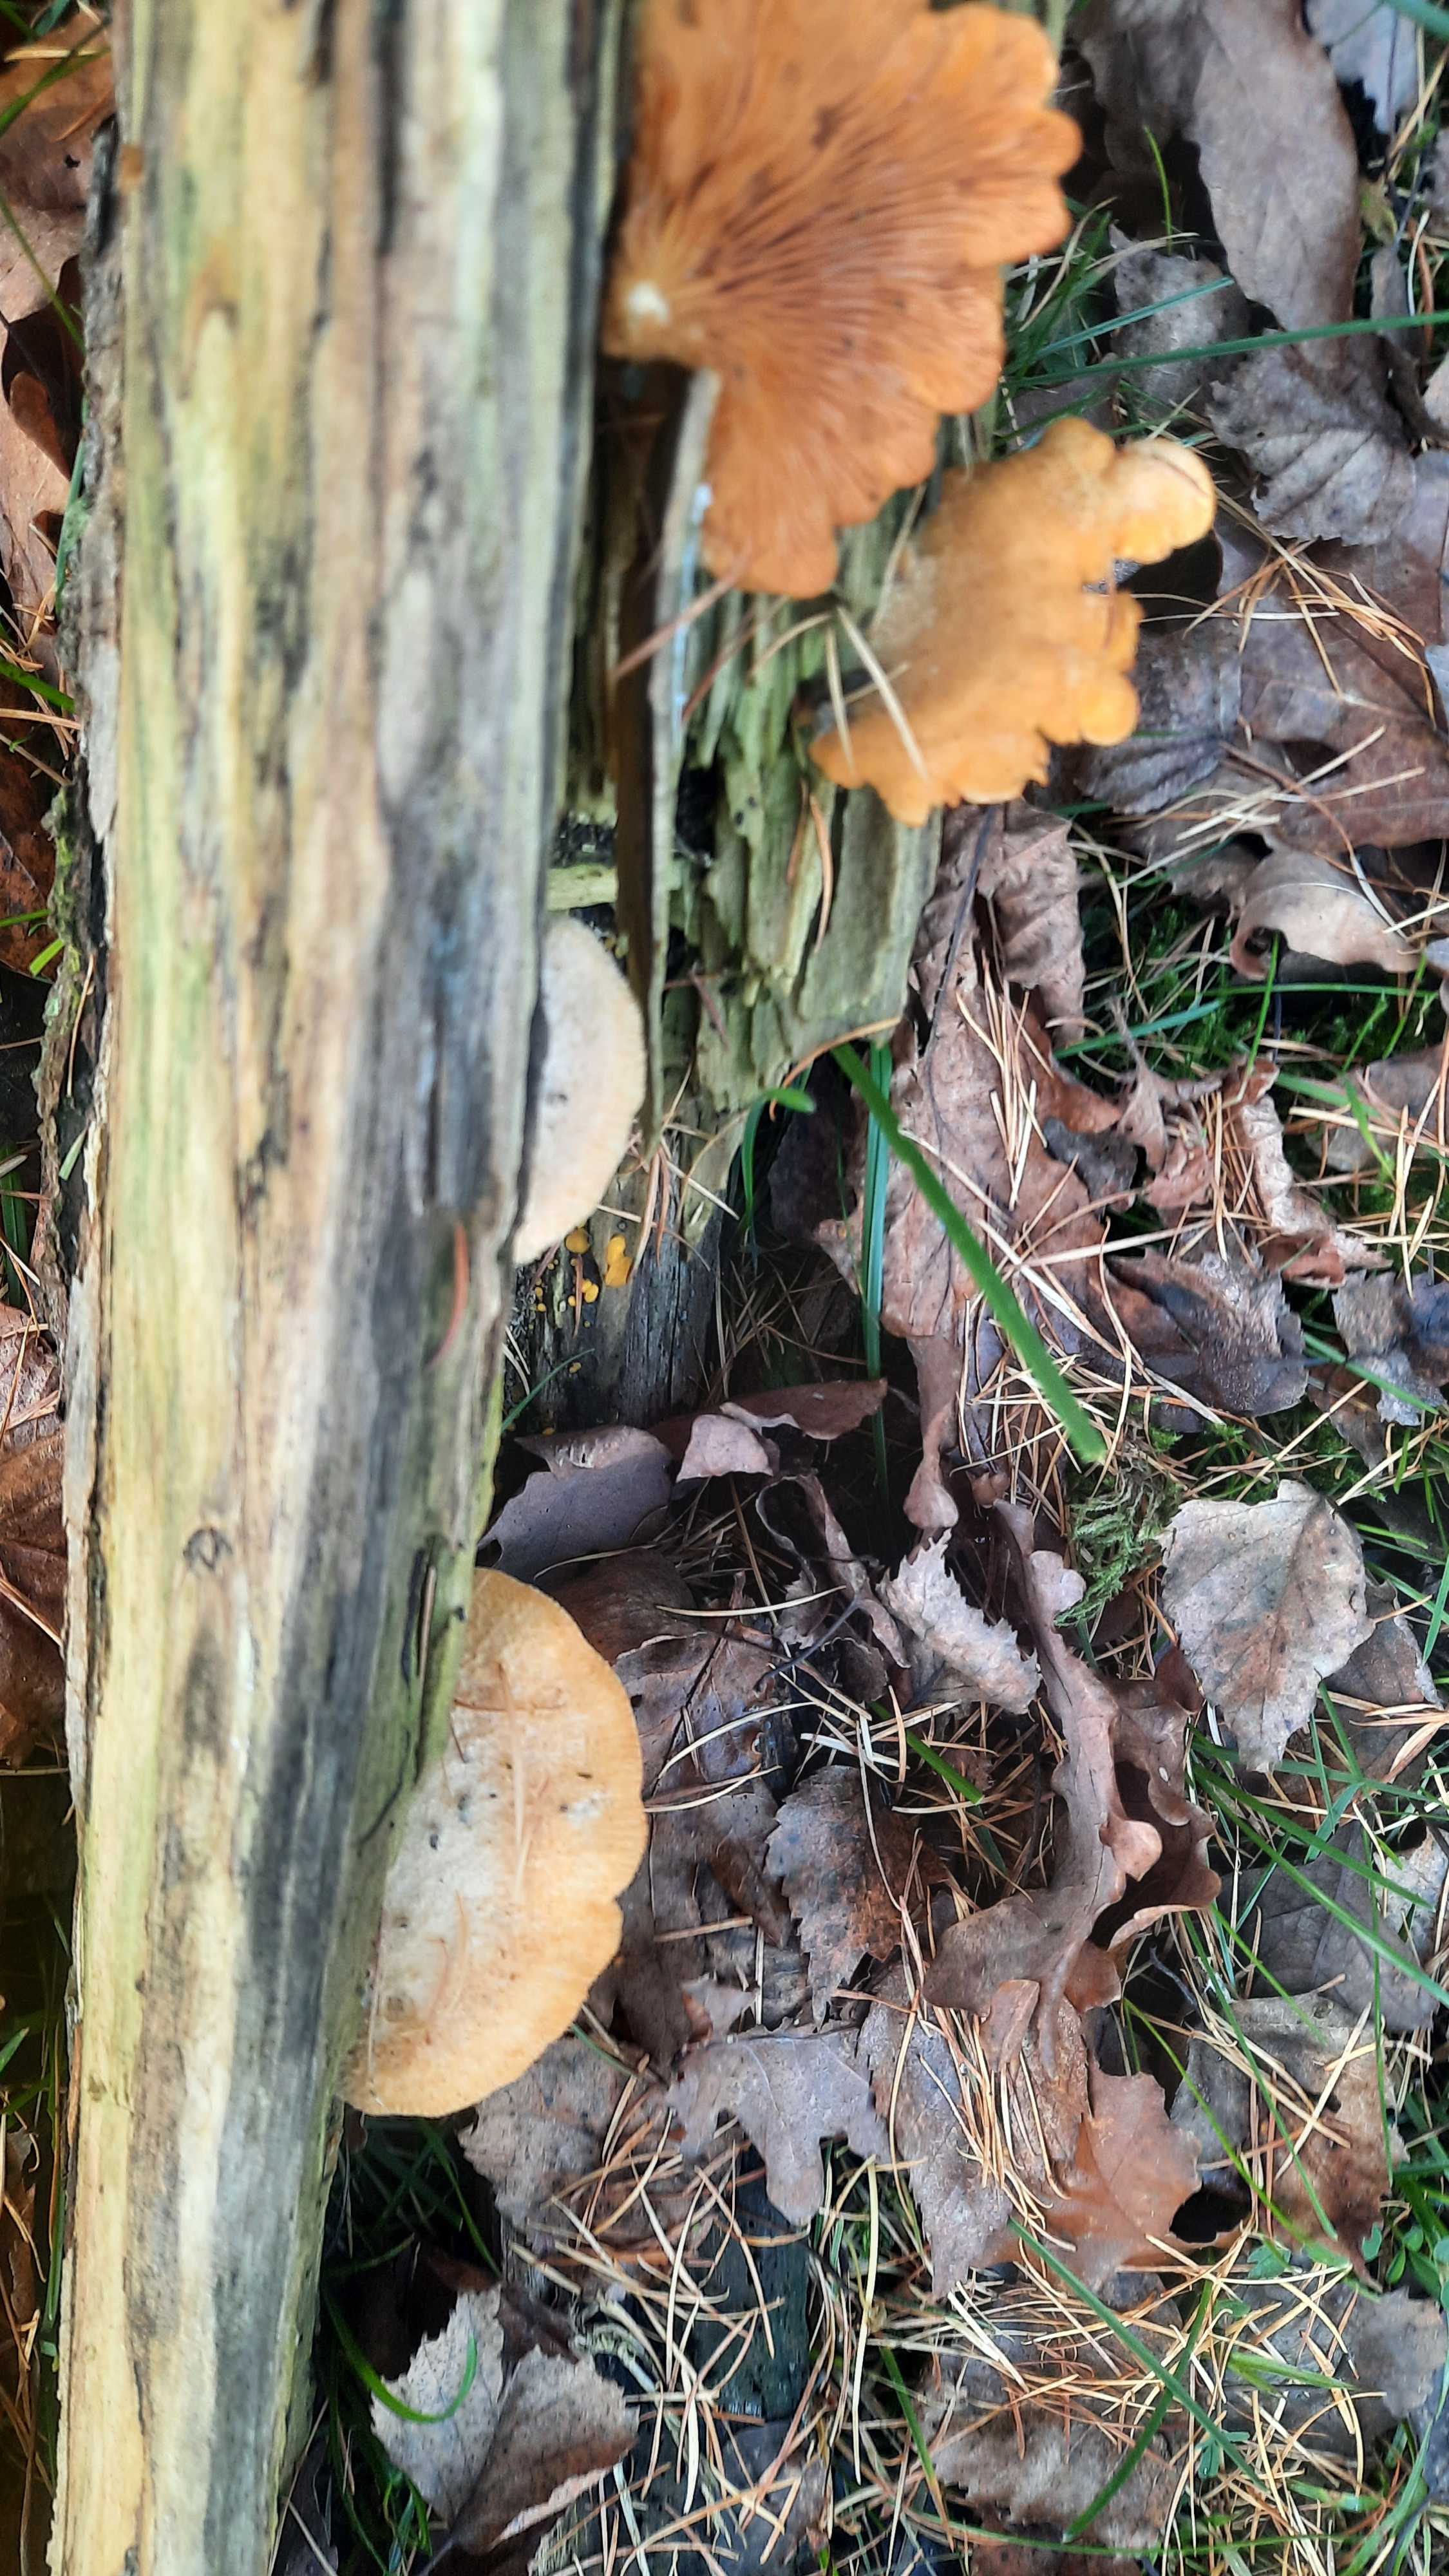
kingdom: Fungi
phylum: Basidiomycota
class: Agaricomycetes
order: Boletales
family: Tapinellaceae
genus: Tapinella
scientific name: Tapinella panuoides
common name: tømmer-viftesvamp
